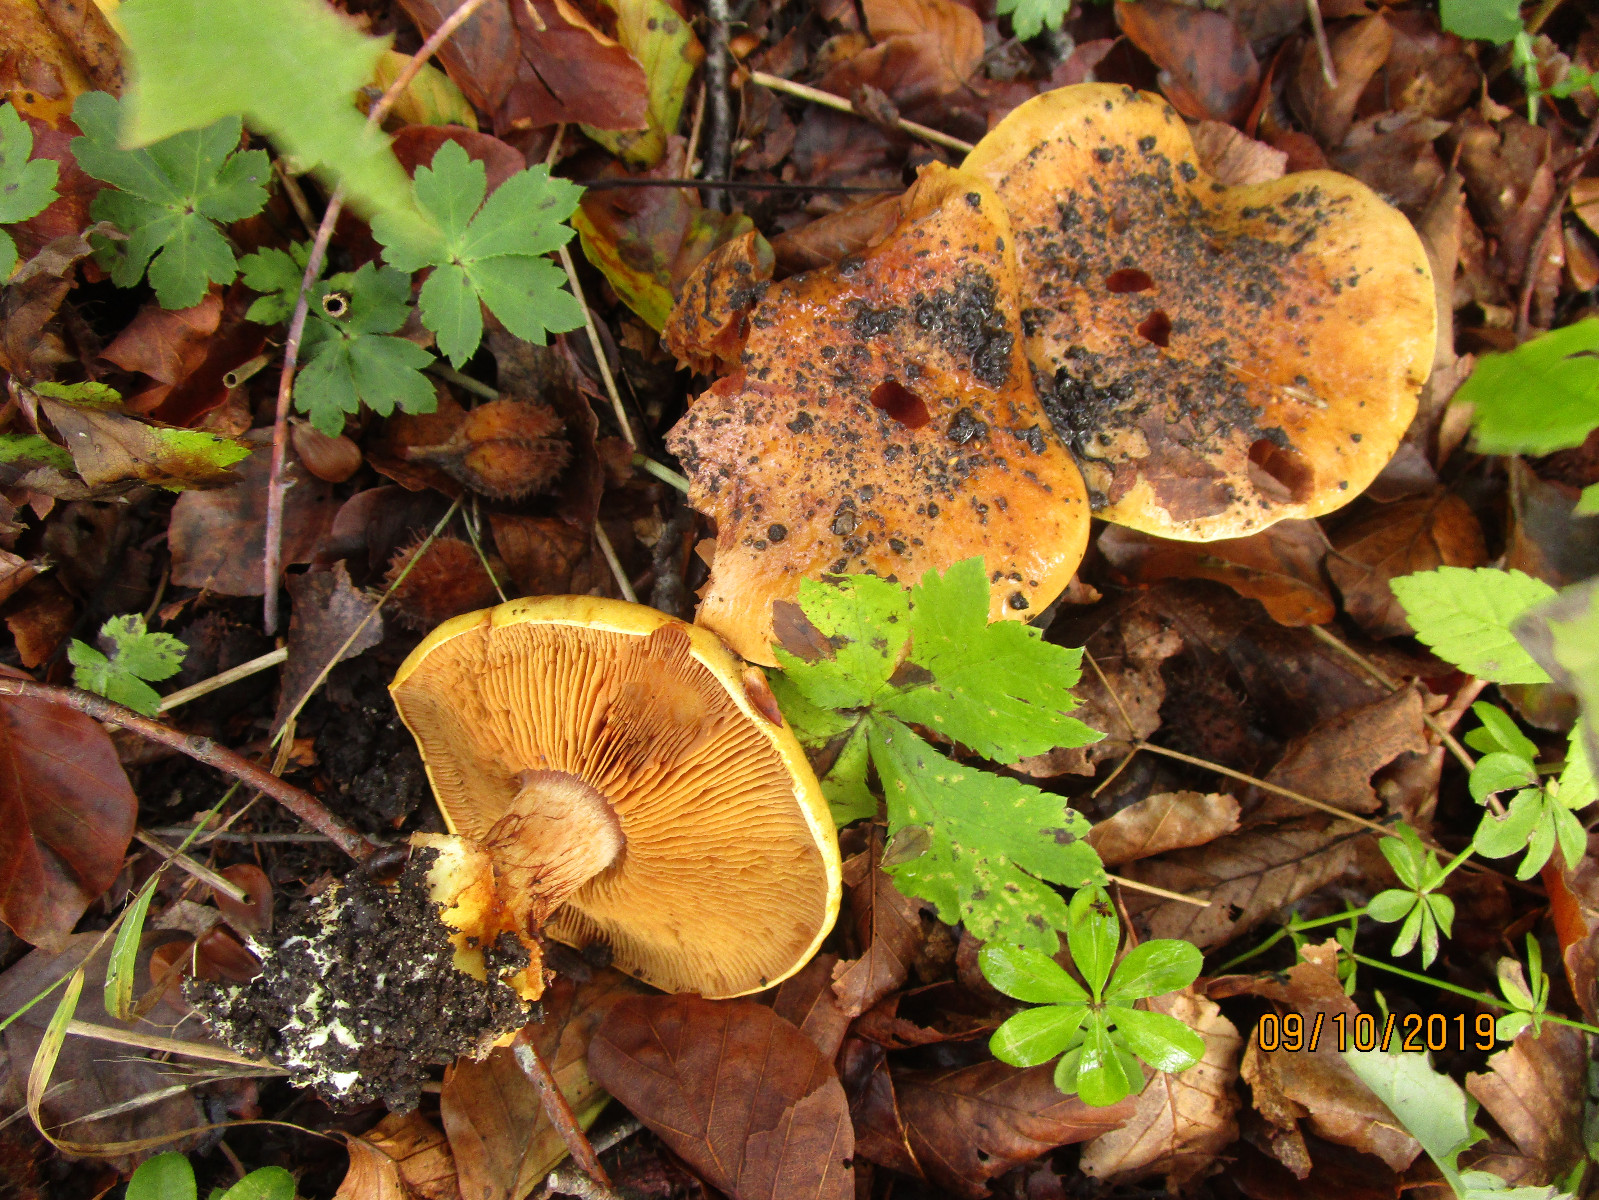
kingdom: Fungi
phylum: Basidiomycota
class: Agaricomycetes
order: Agaricales
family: Cortinariaceae
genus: Calonarius
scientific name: Calonarius alcalinophilus
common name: gyldenbrun slørhat
